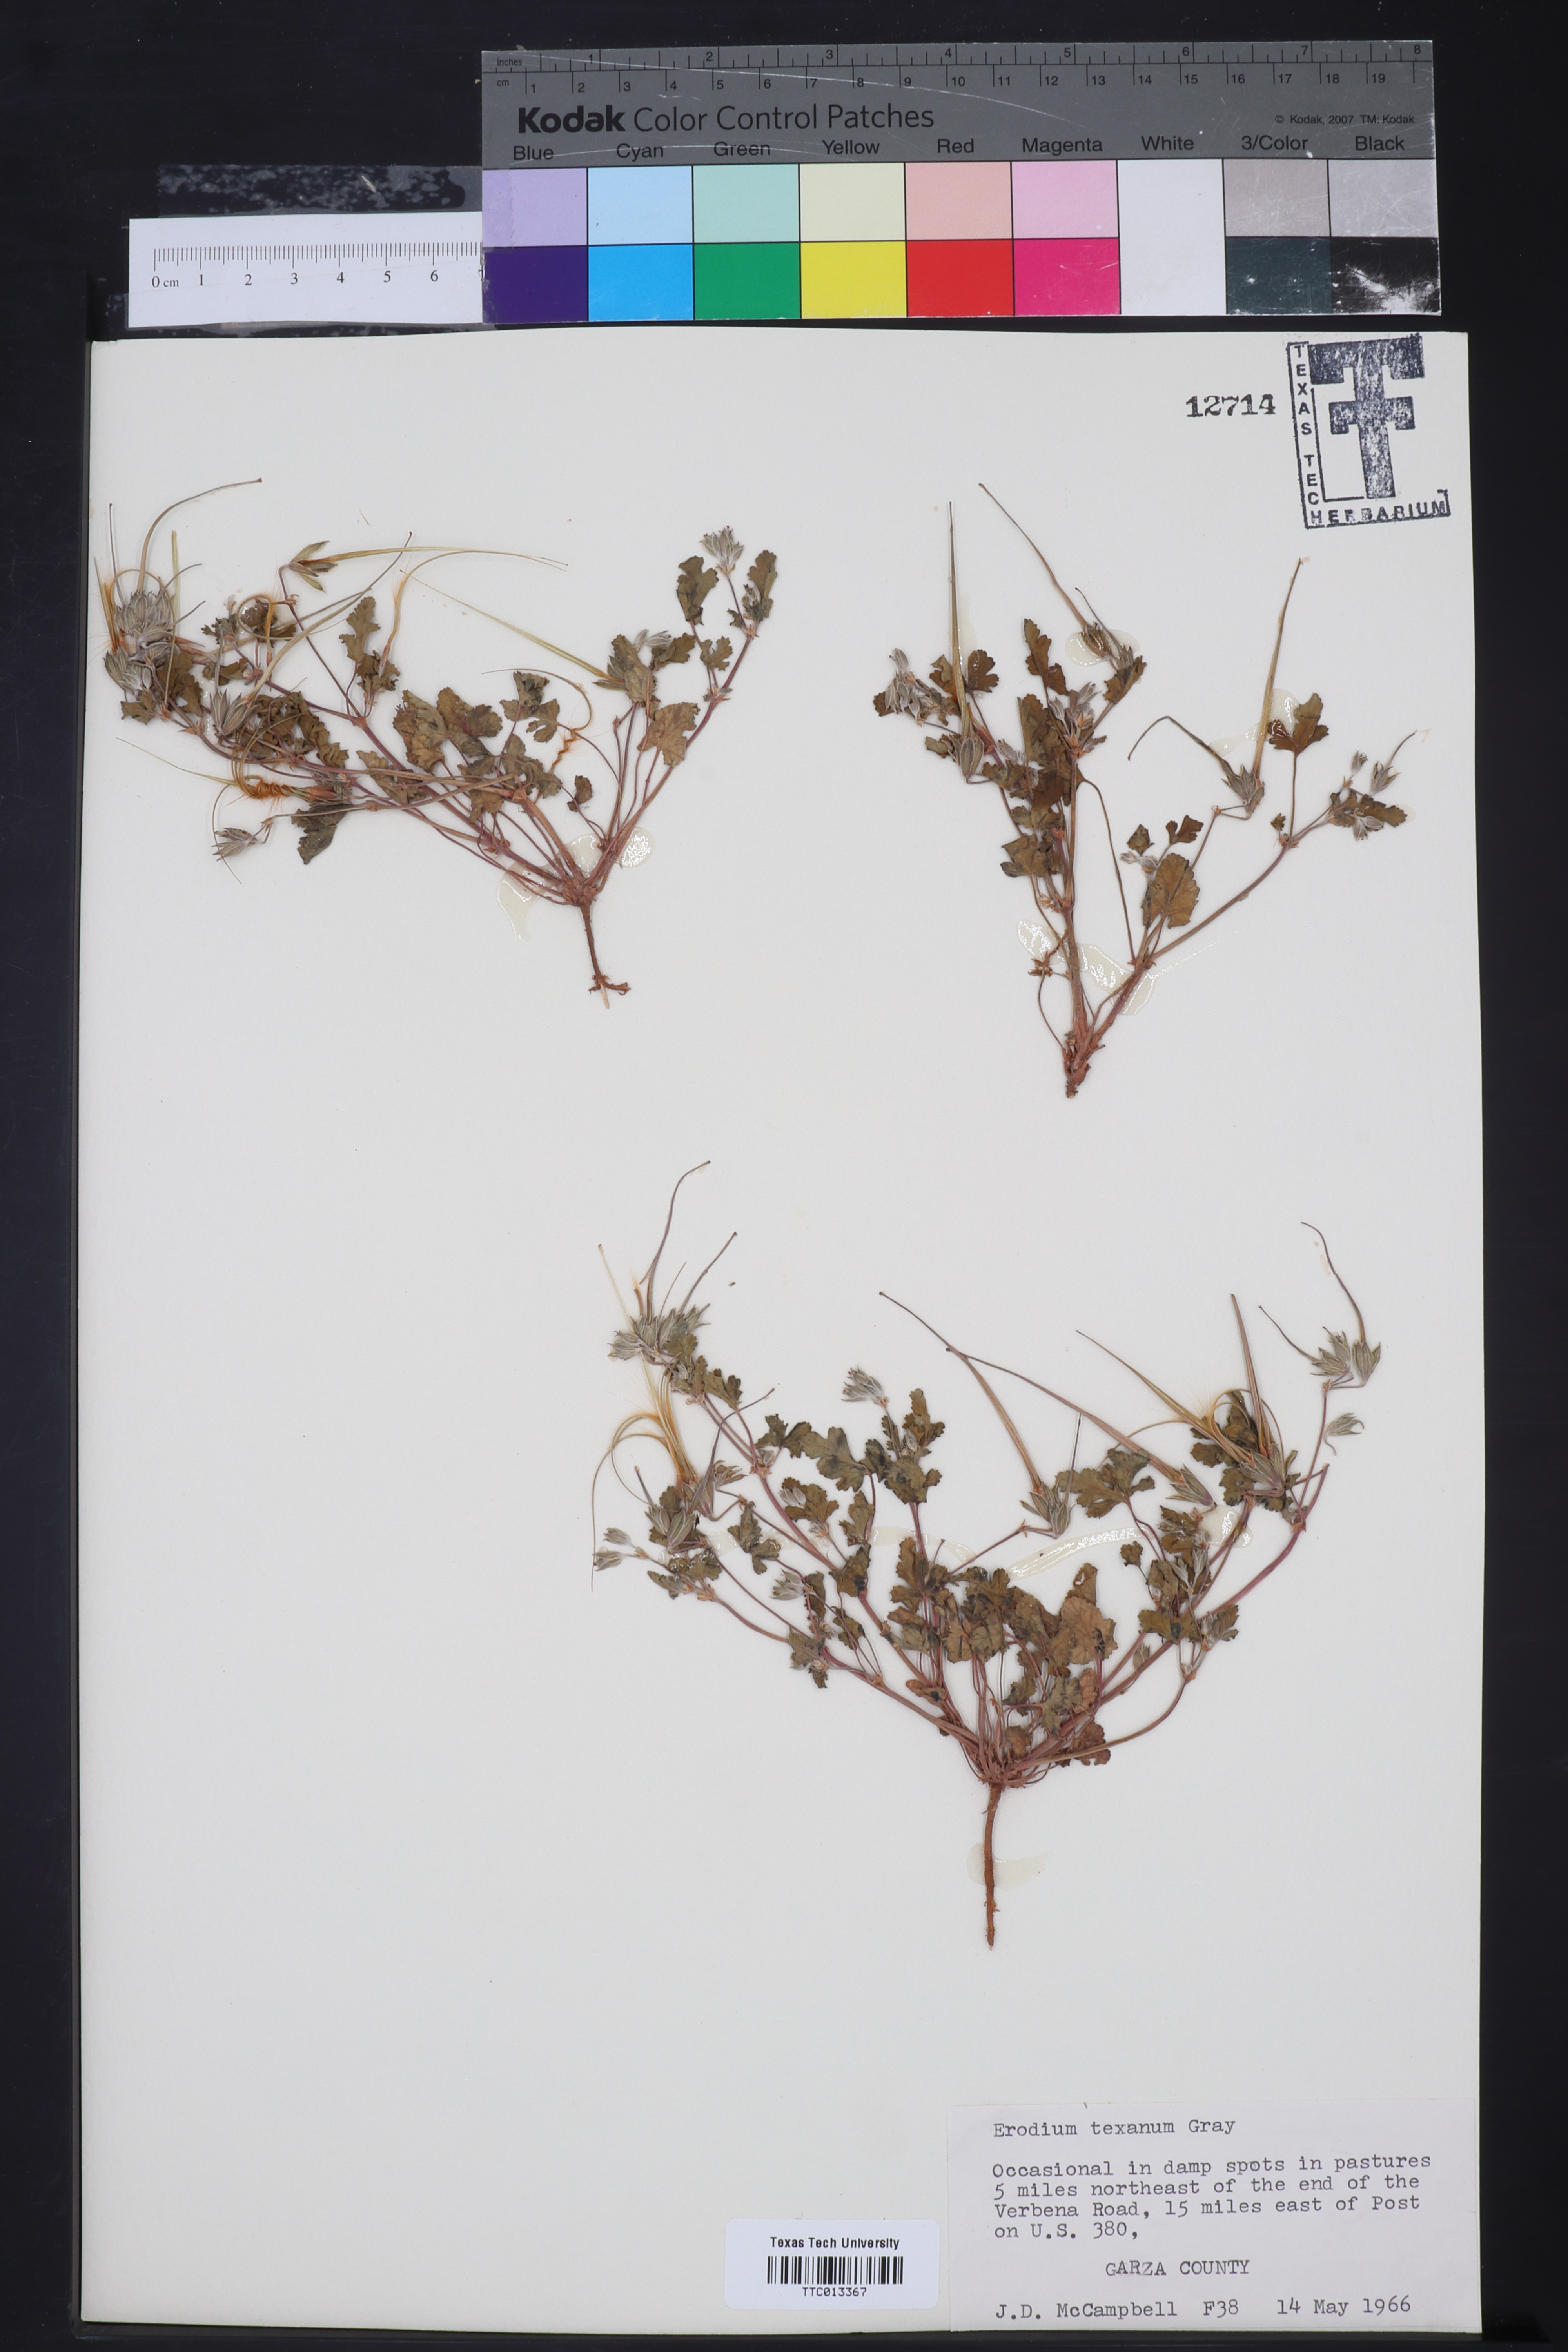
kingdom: Plantae
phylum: Tracheophyta
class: Magnoliopsida
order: Geraniales
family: Geraniaceae
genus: Erodium
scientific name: Erodium texanum
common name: Texas stork's-bill
